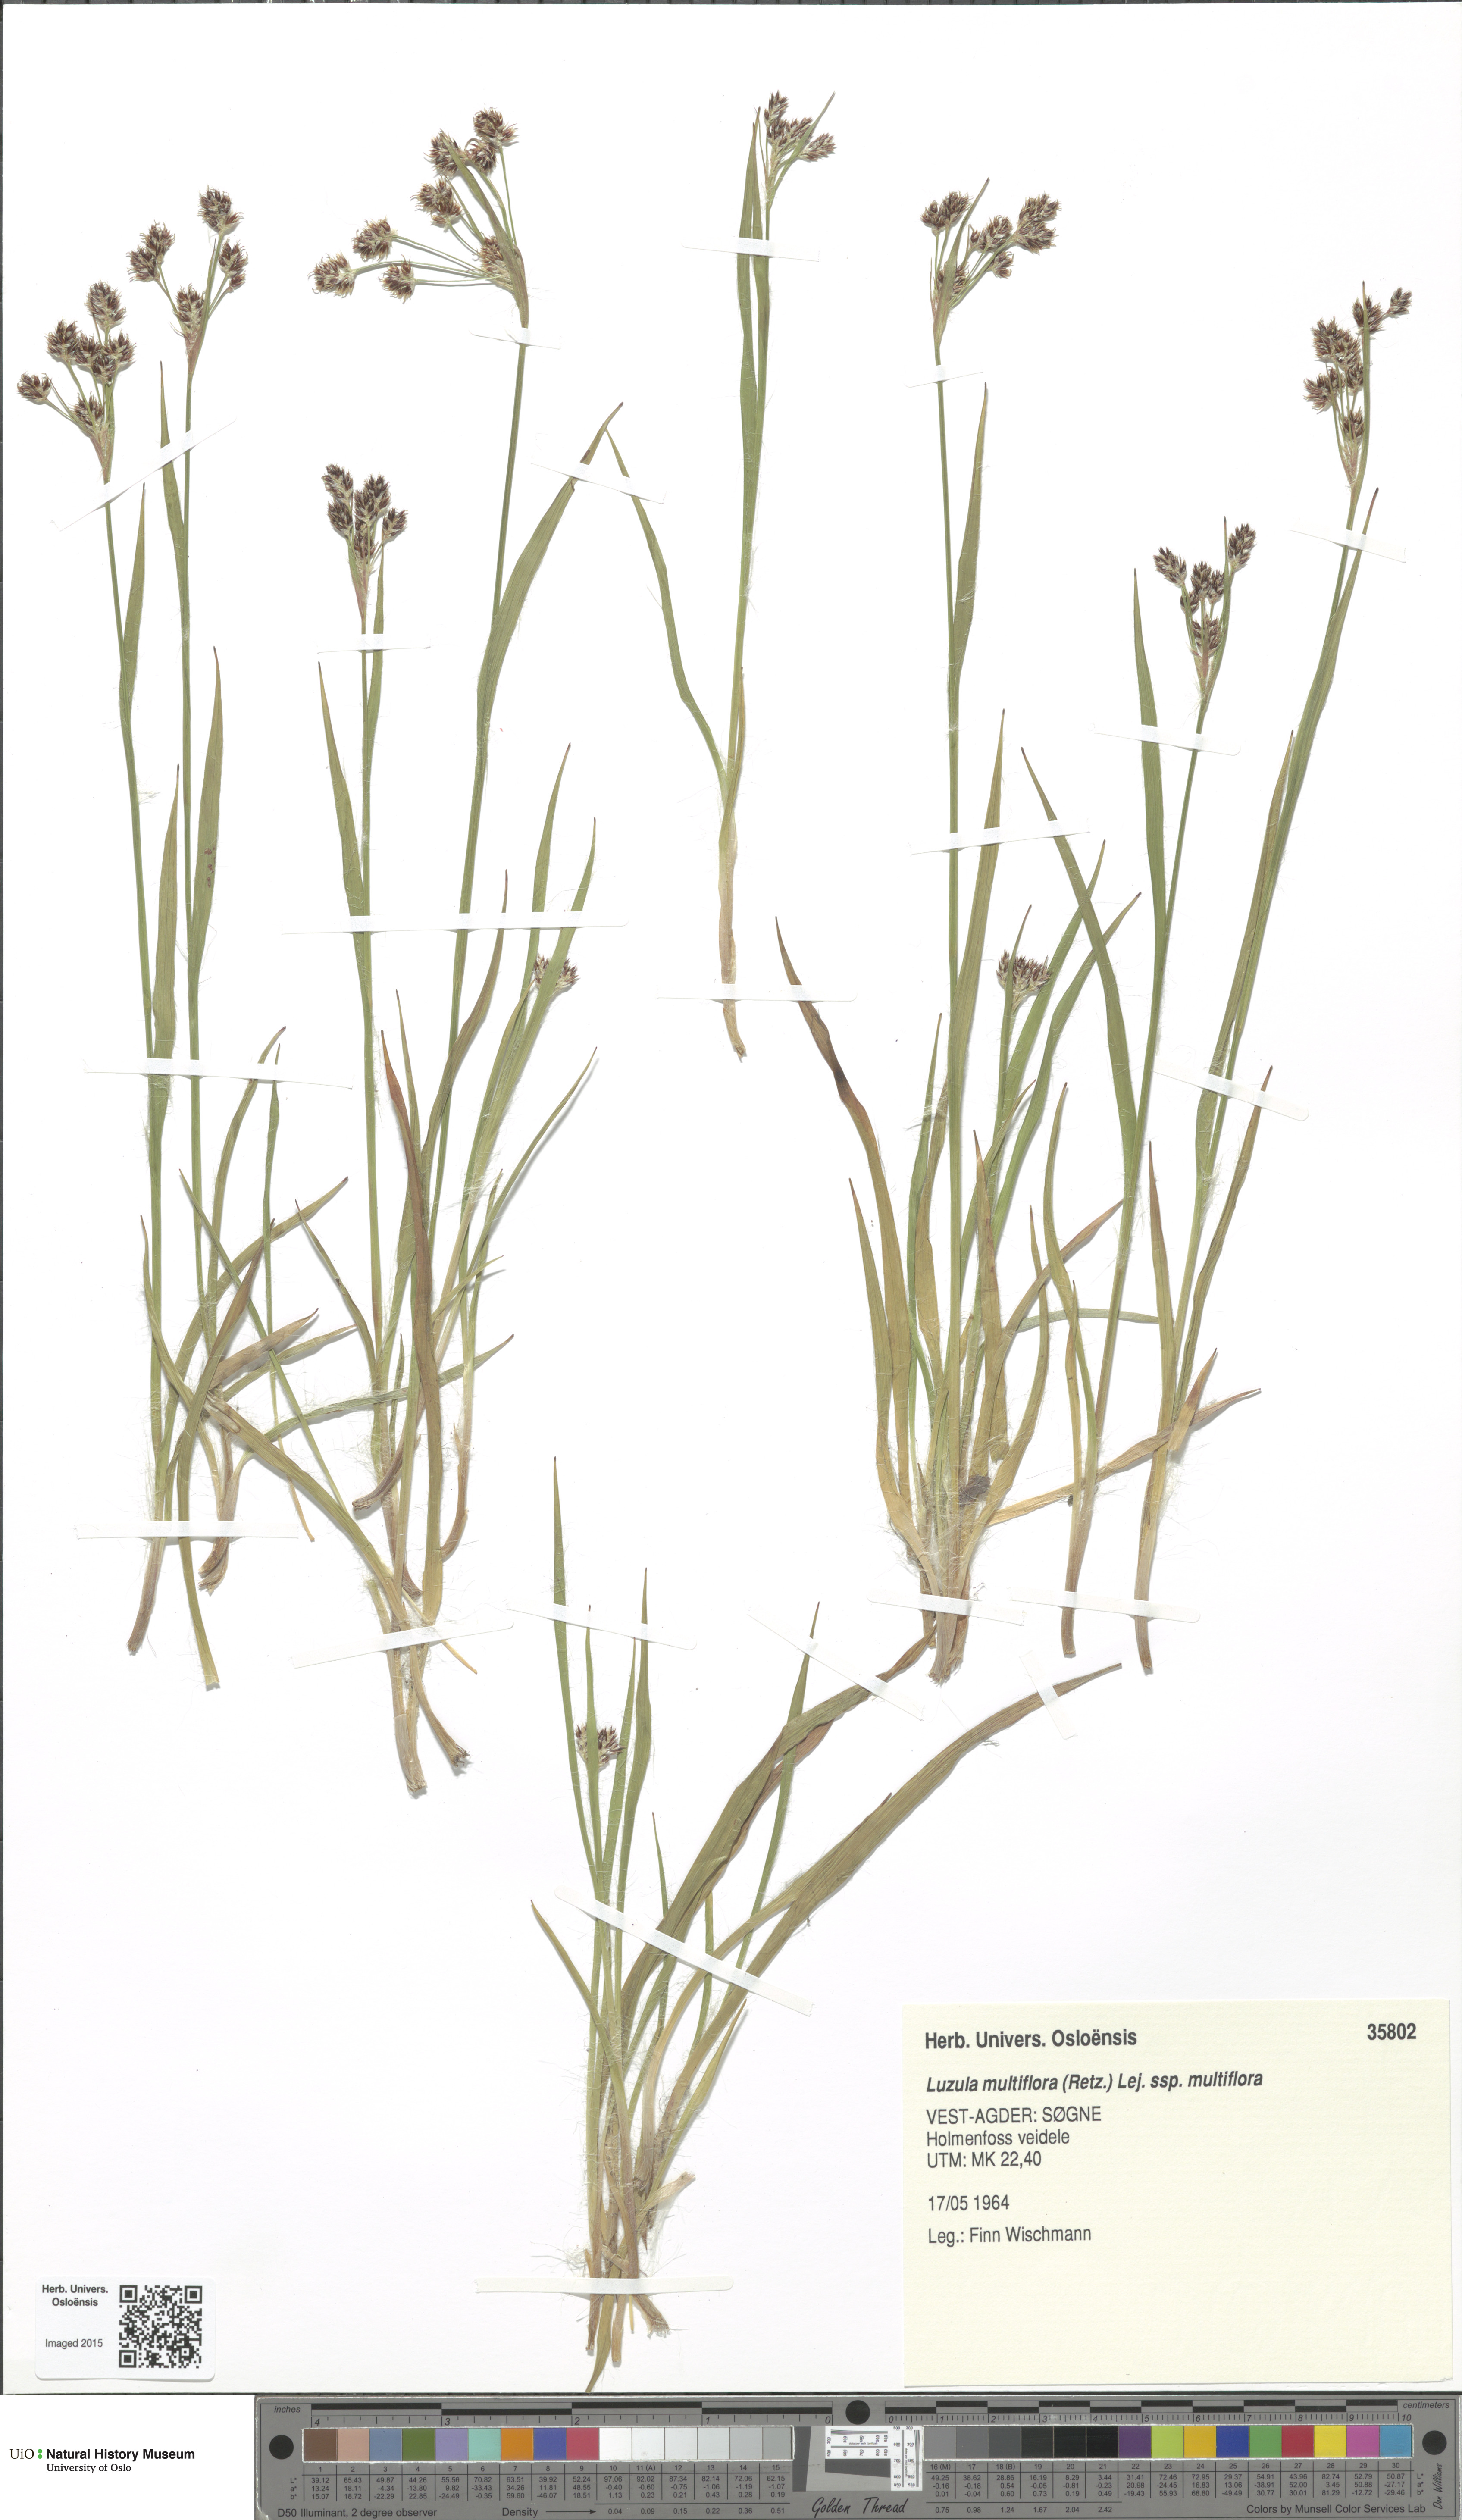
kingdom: Plantae
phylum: Tracheophyta
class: Liliopsida
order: Poales
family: Juncaceae
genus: Luzula
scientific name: Luzula multiflora
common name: Heath wood-rush
